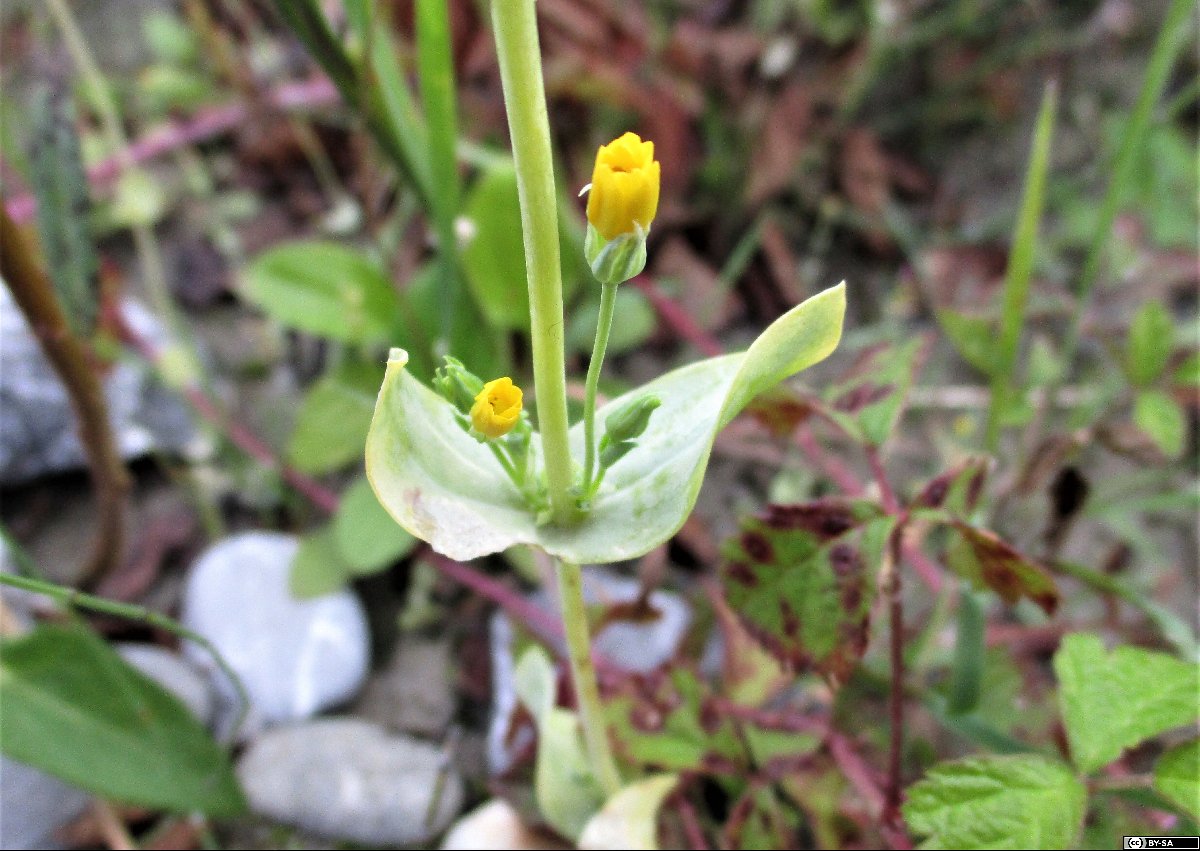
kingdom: Plantae
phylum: Tracheophyta
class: Magnoliopsida
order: Gentianales
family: Gentianaceae
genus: Blackstonia
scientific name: Blackstonia acuminata
